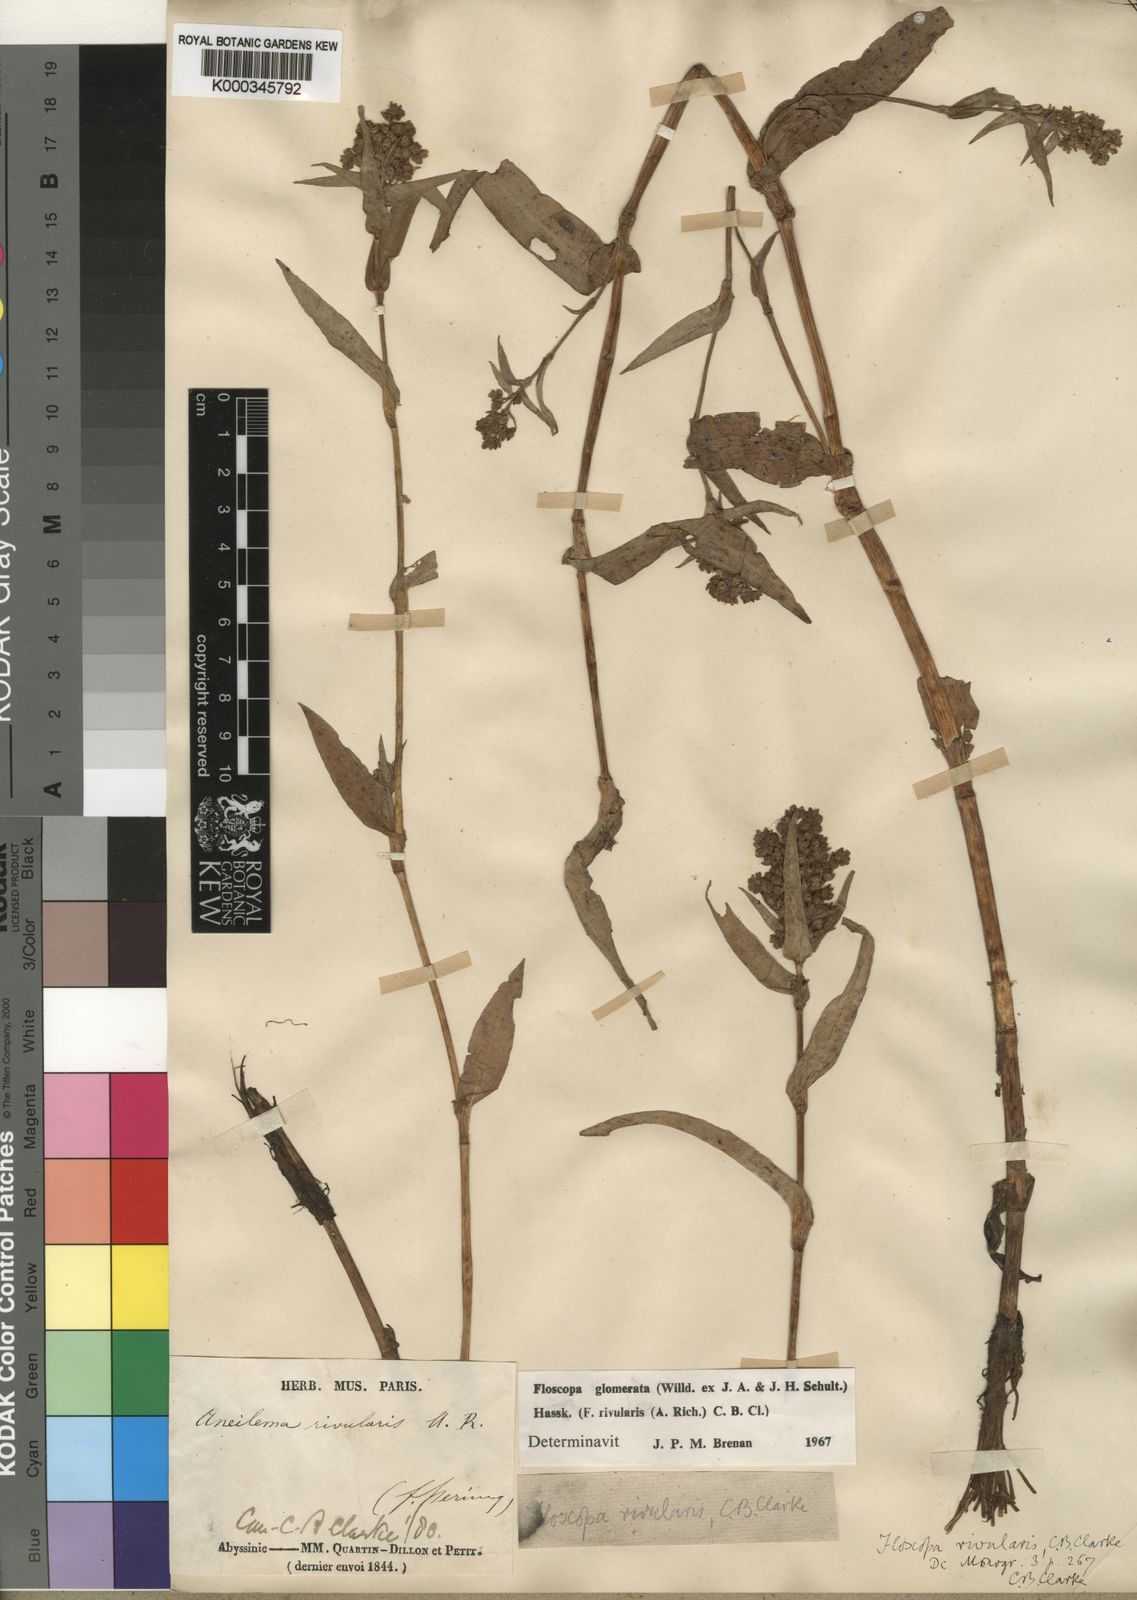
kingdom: Plantae
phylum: Tracheophyta
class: Liliopsida
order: Commelinales
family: Commelinaceae
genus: Floscopa
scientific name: Floscopa glomerata
